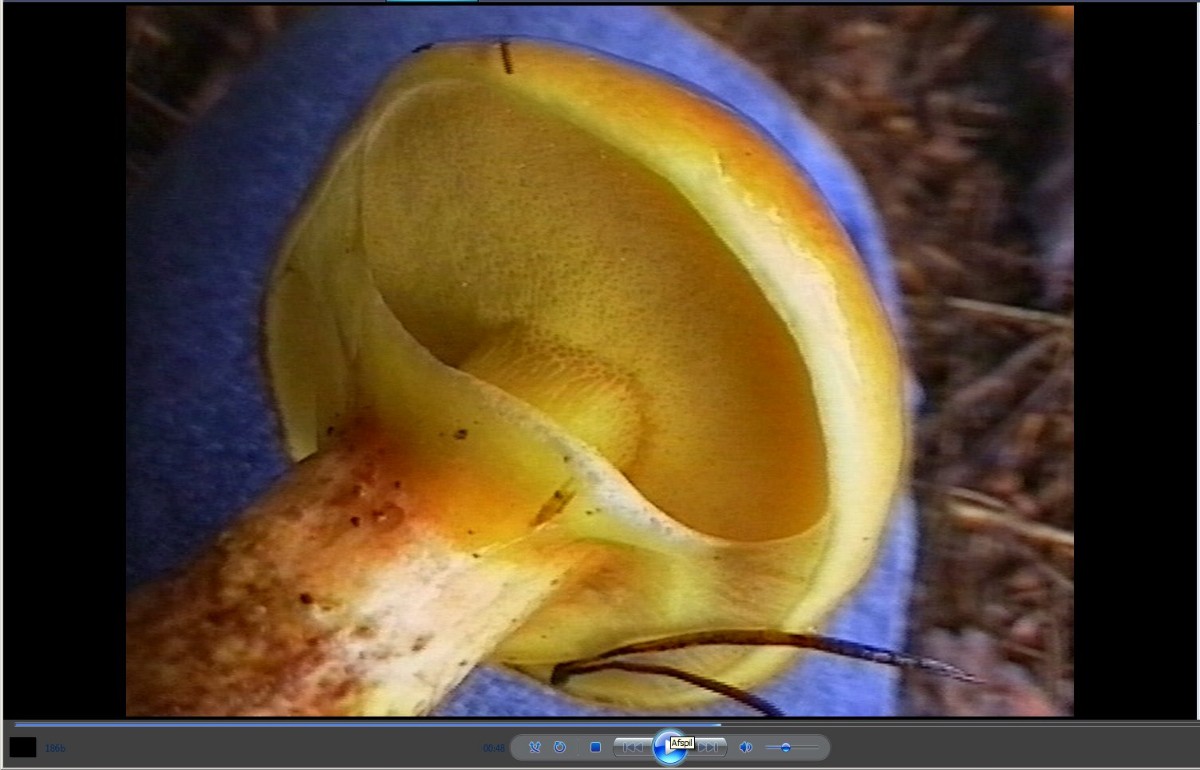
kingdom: Fungi
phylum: Basidiomycota
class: Agaricomycetes
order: Boletales
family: Suillaceae
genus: Suillus
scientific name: Suillus grevillei
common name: lærke-slimrørhat
